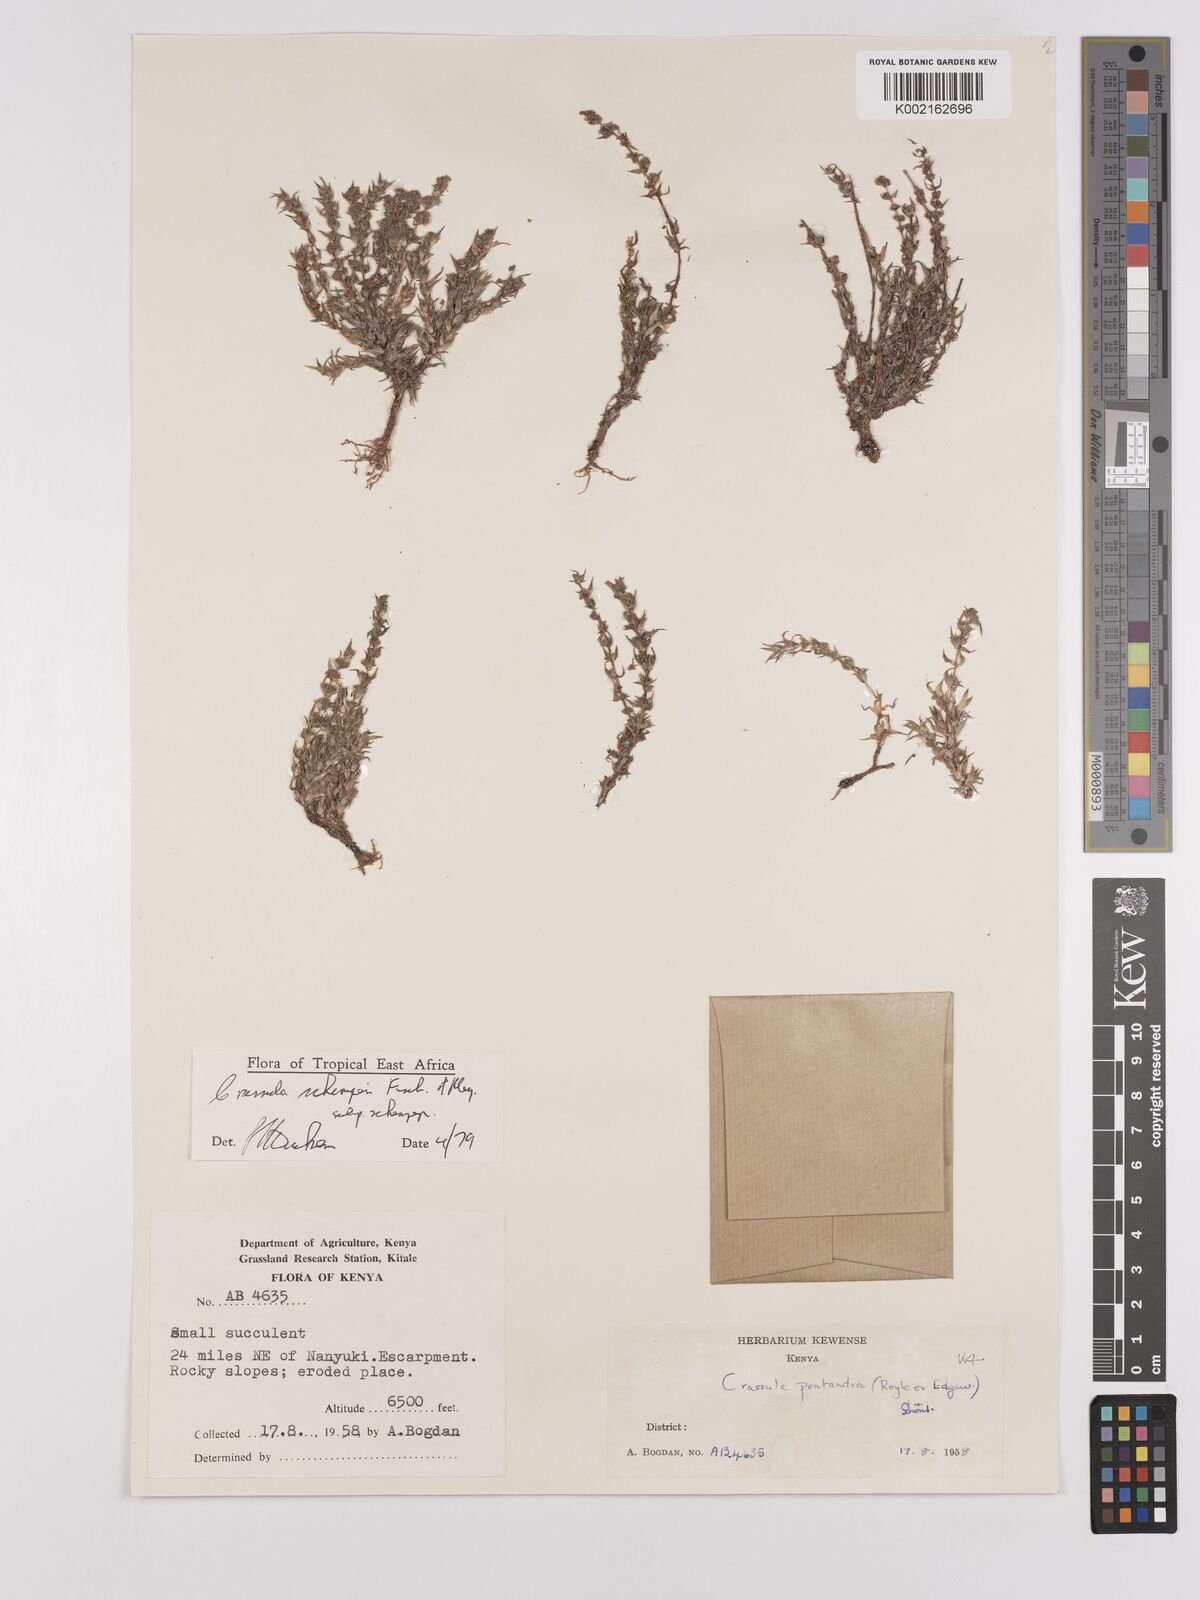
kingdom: Plantae
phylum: Tracheophyta
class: Magnoliopsida
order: Saxifragales
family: Crassulaceae
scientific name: Crassulaceae
